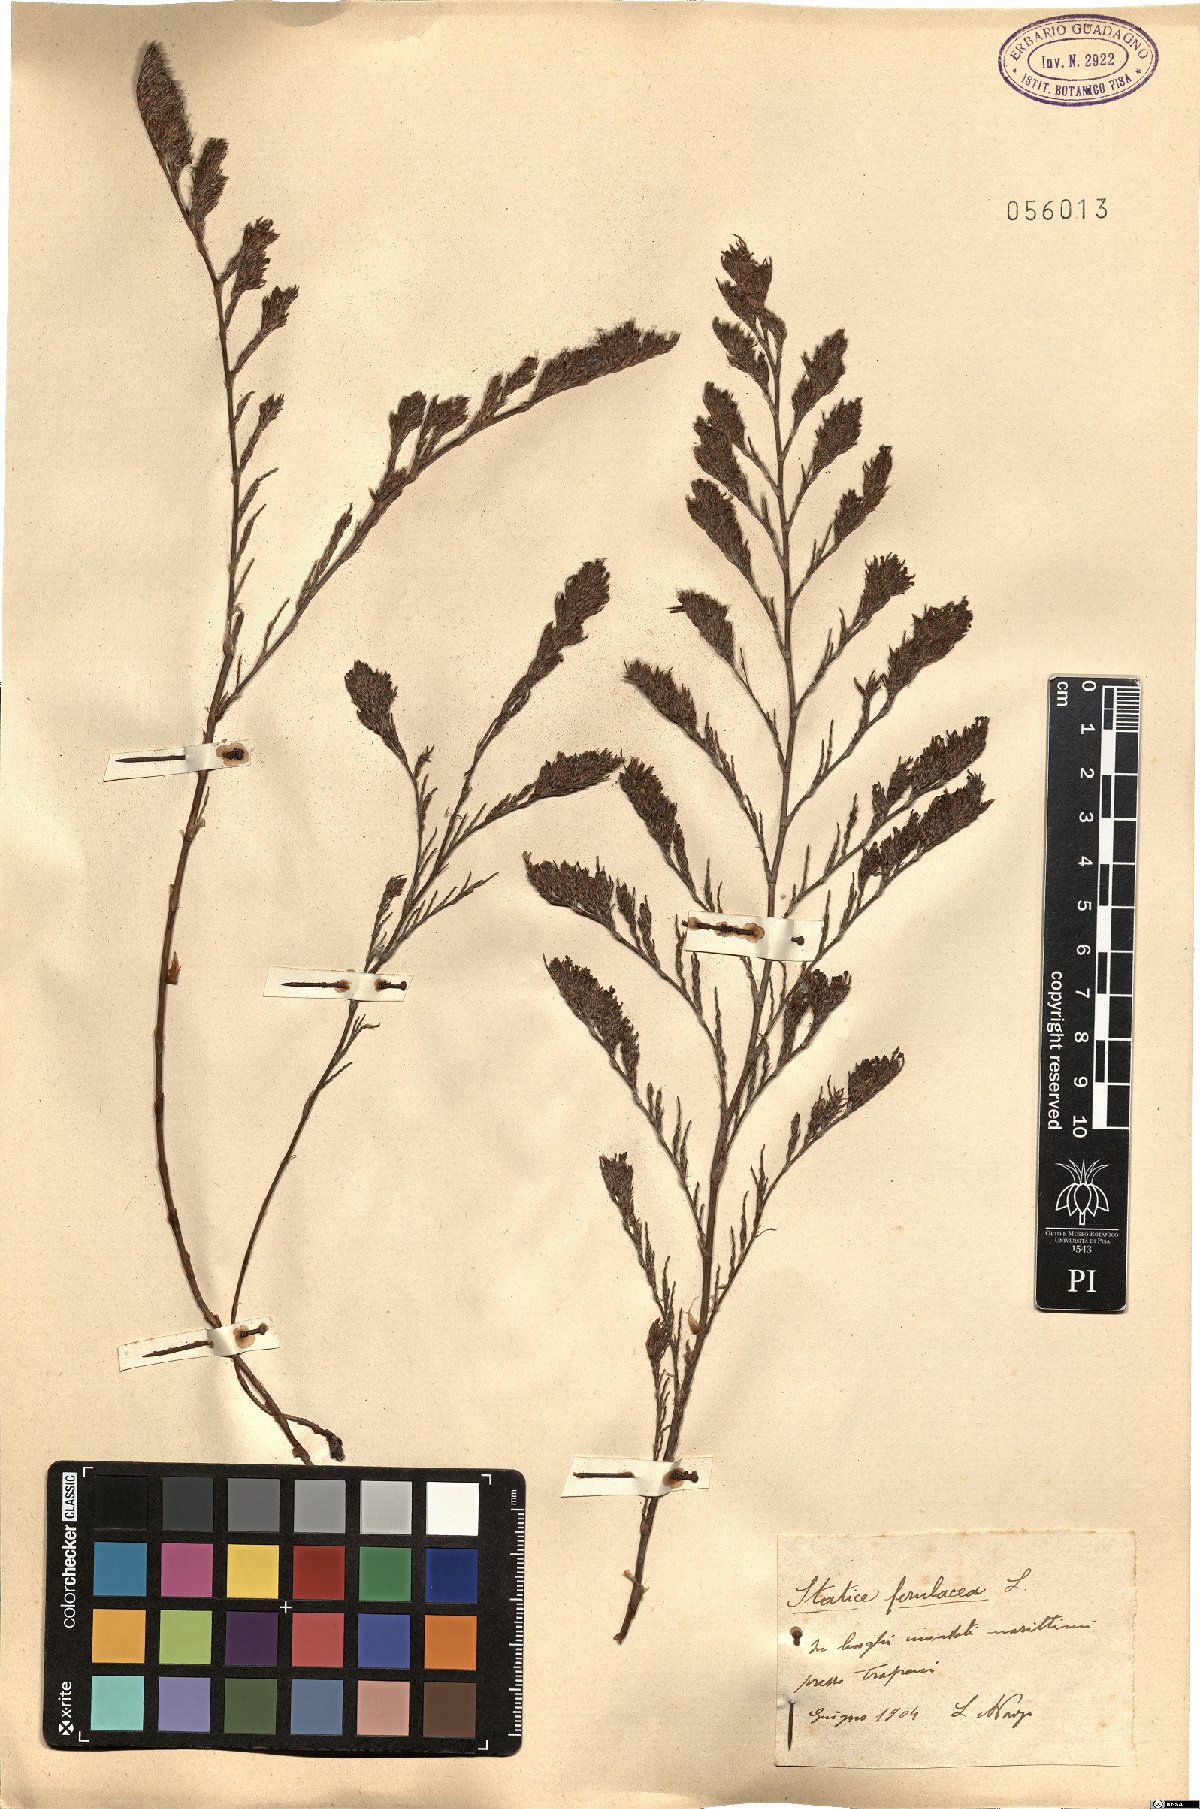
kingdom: Plantae
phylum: Tracheophyta
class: Magnoliopsida
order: Caryophyllales
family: Plumbaginaceae
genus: Myriolimon
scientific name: Myriolimon ferulaceum
